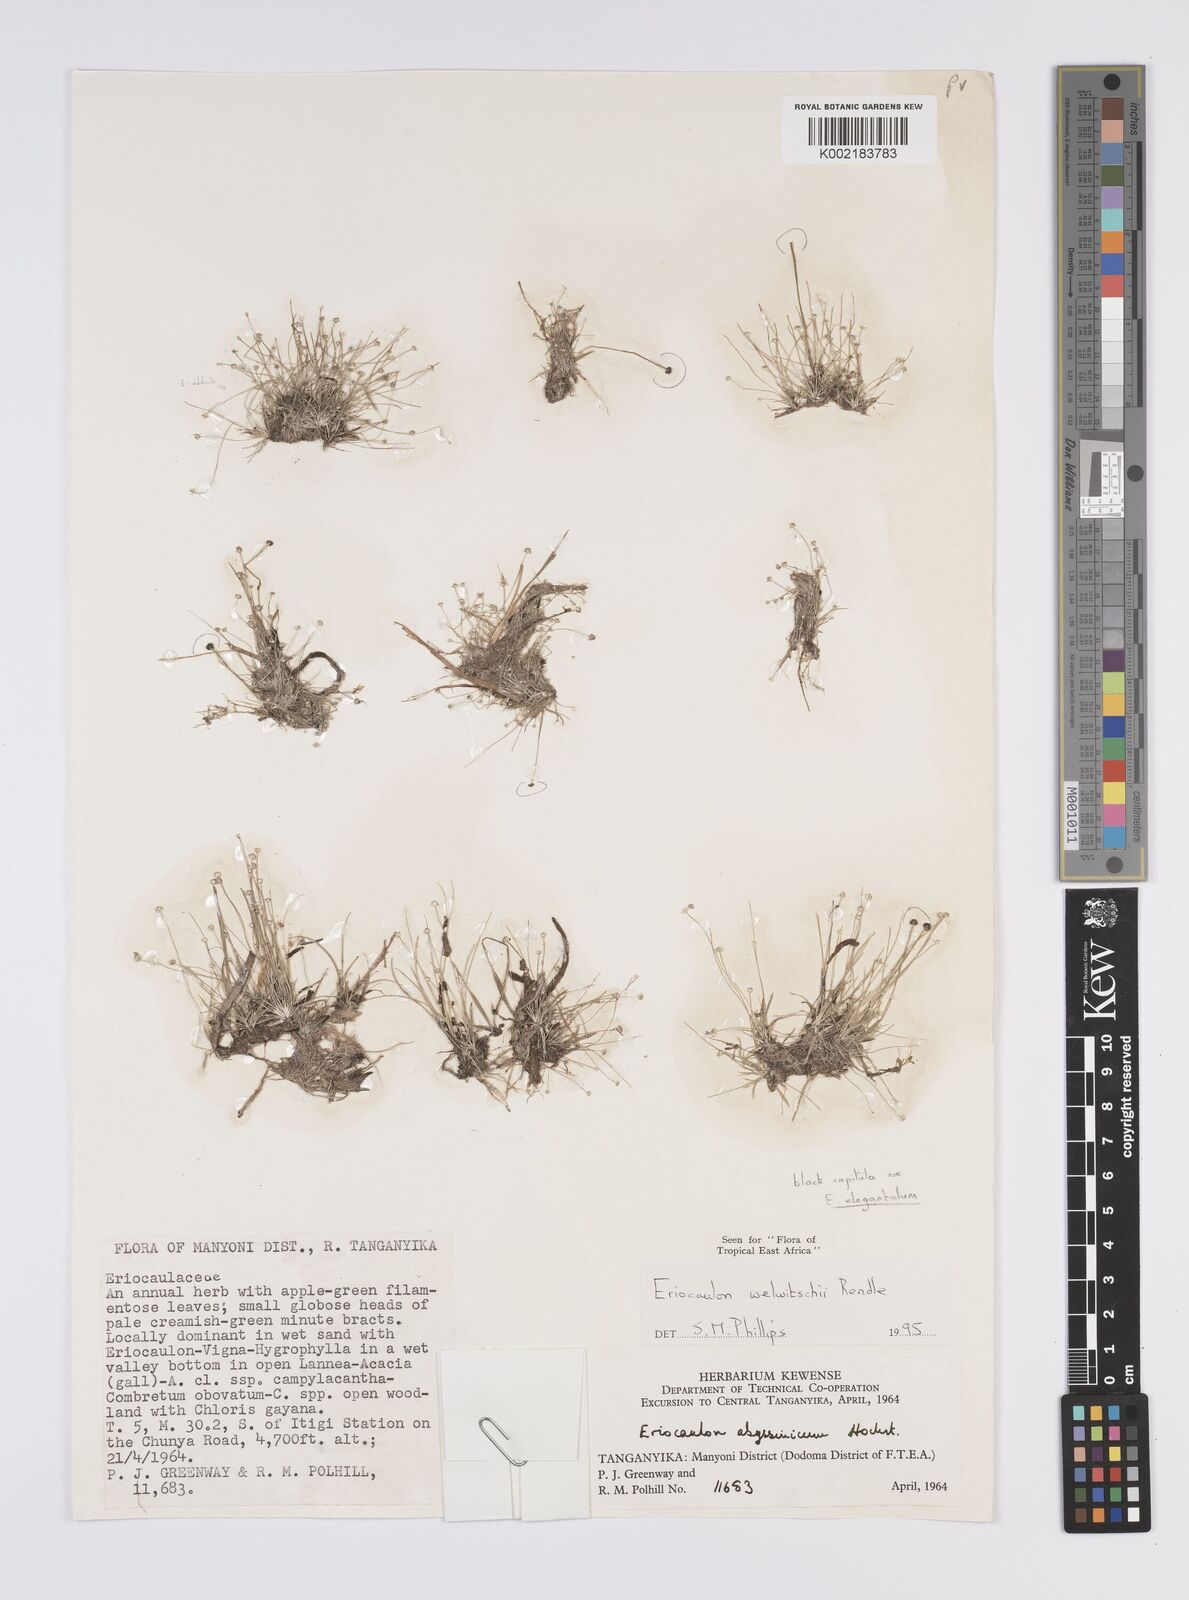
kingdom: Plantae
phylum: Tracheophyta
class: Liliopsida
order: Poales
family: Eriocaulaceae
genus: Eriocaulon
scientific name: Eriocaulon welwitschii
